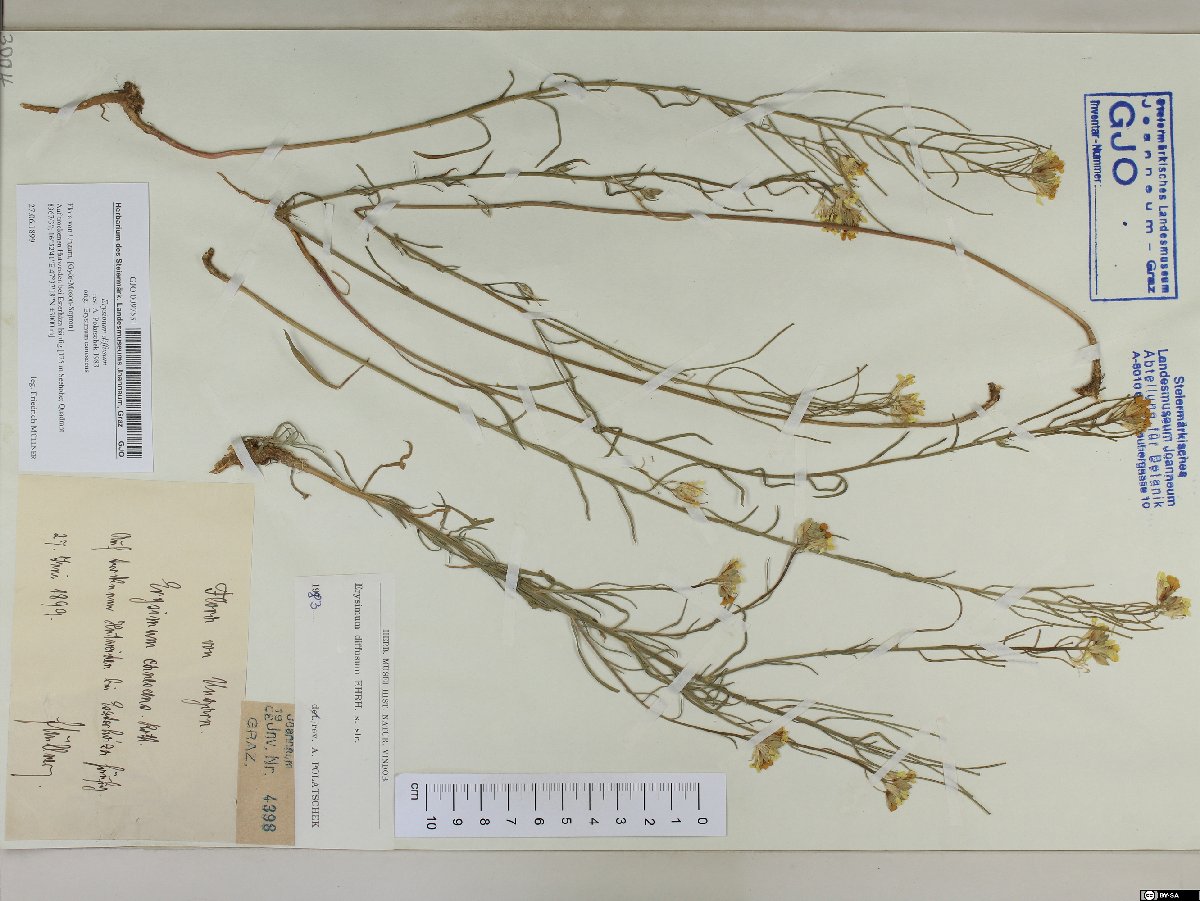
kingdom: Plantae
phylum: Tracheophyta
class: Magnoliopsida
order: Brassicales
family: Brassicaceae
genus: Erysimum
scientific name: Erysimum diffusum
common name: Diffuse wallflower
